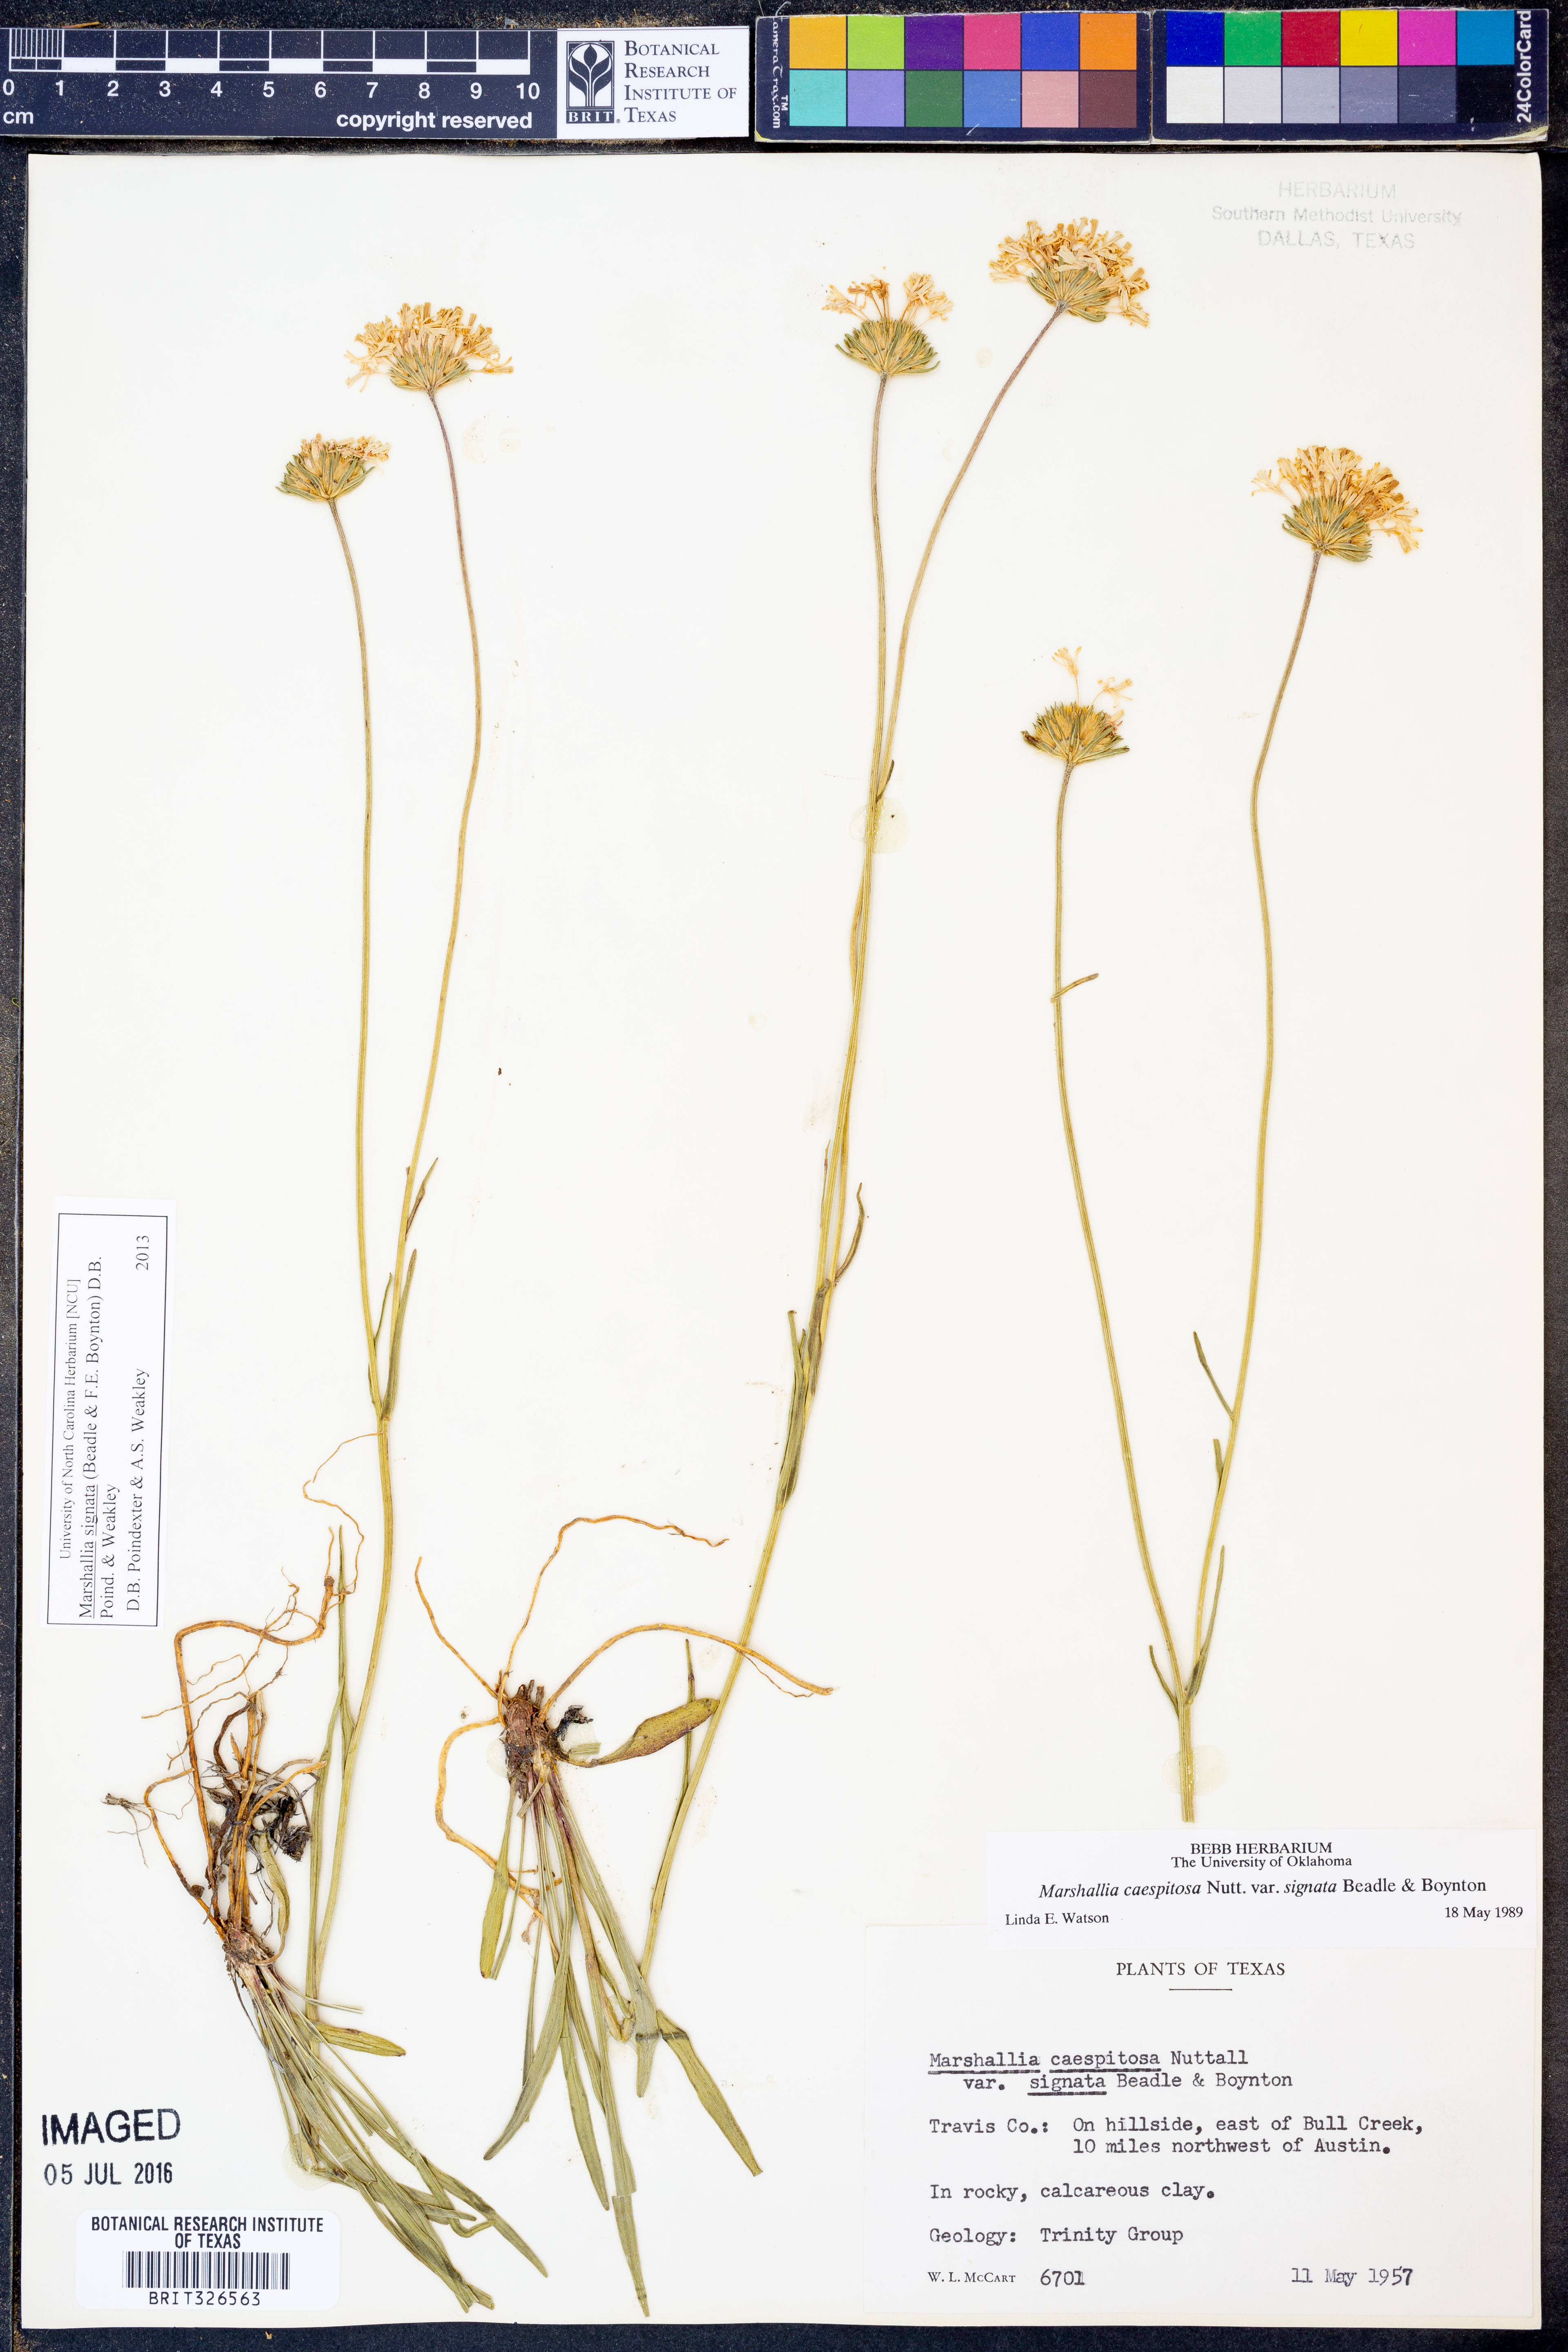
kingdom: Plantae
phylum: Tracheophyta
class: Magnoliopsida
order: Asterales
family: Asteraceae
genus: Marshallia
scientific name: Marshallia
